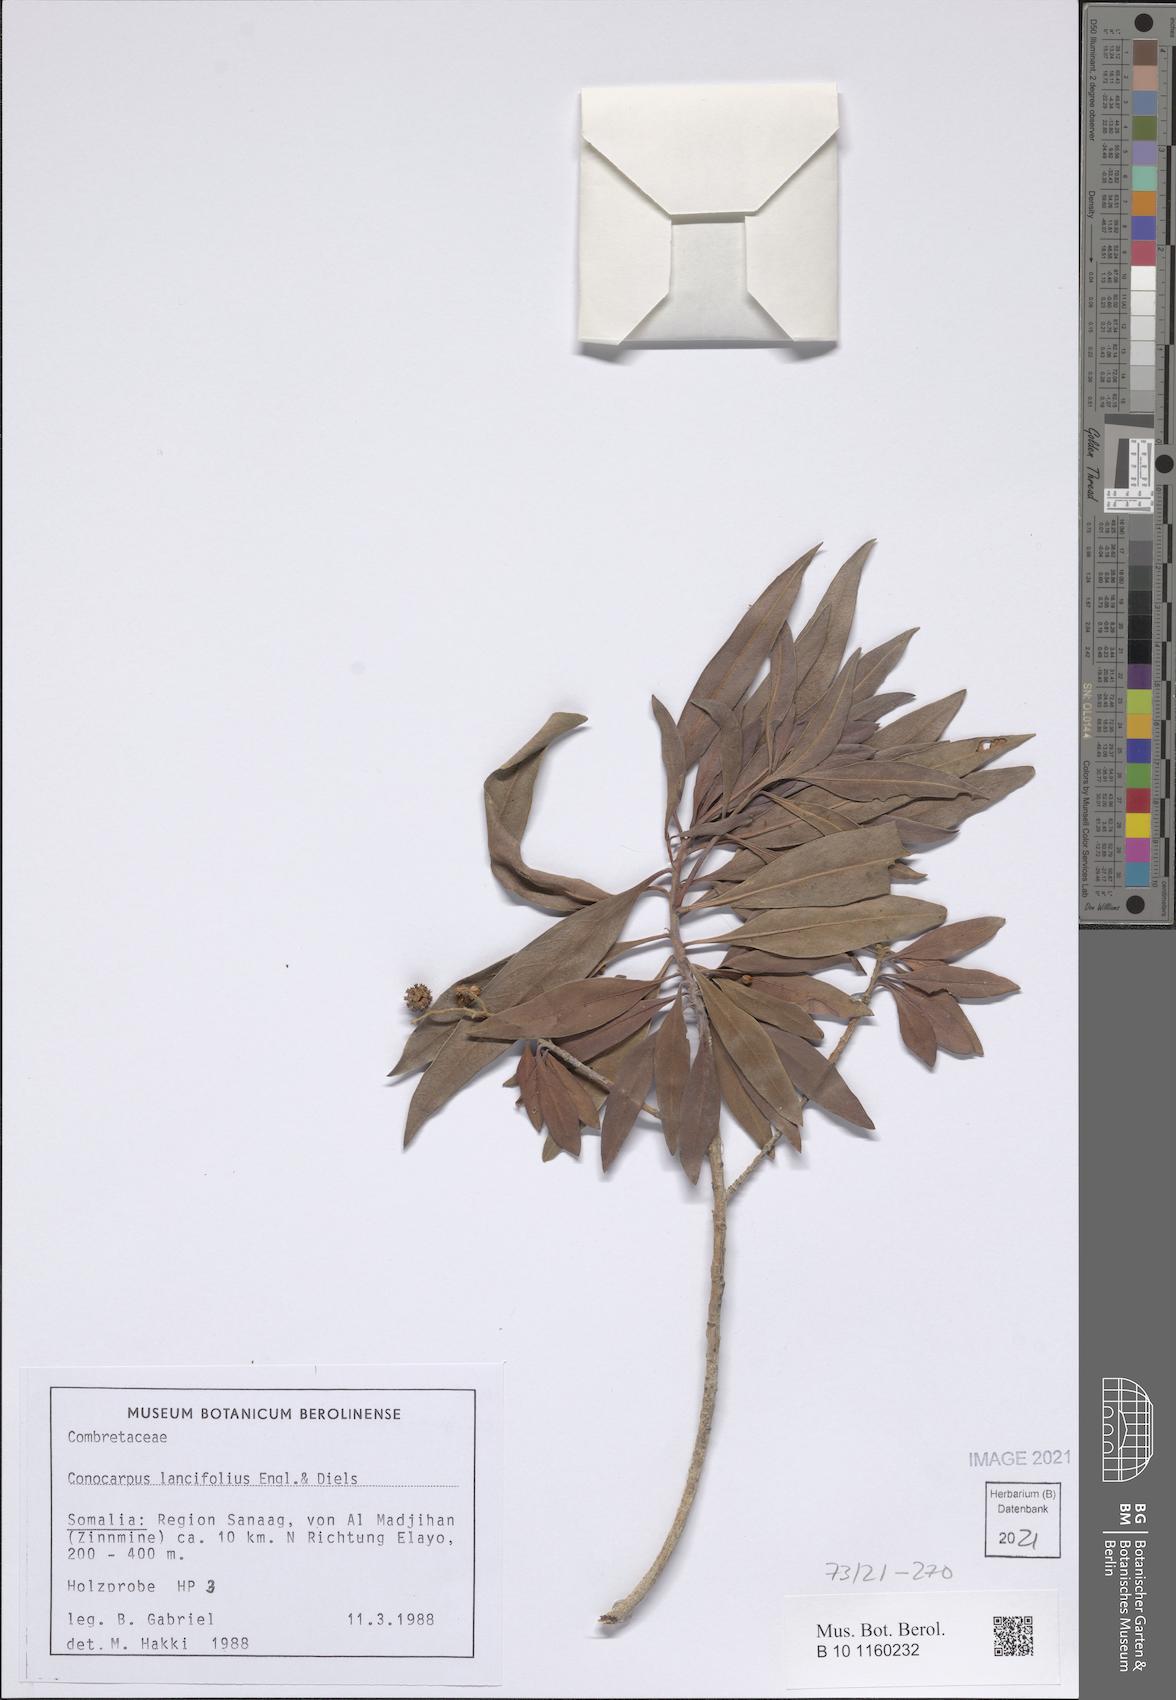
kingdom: Plantae
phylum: Tracheophyta
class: Magnoliopsida
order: Myrtales
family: Combretaceae
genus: Conocarpus
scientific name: Conocarpus lancifolius
